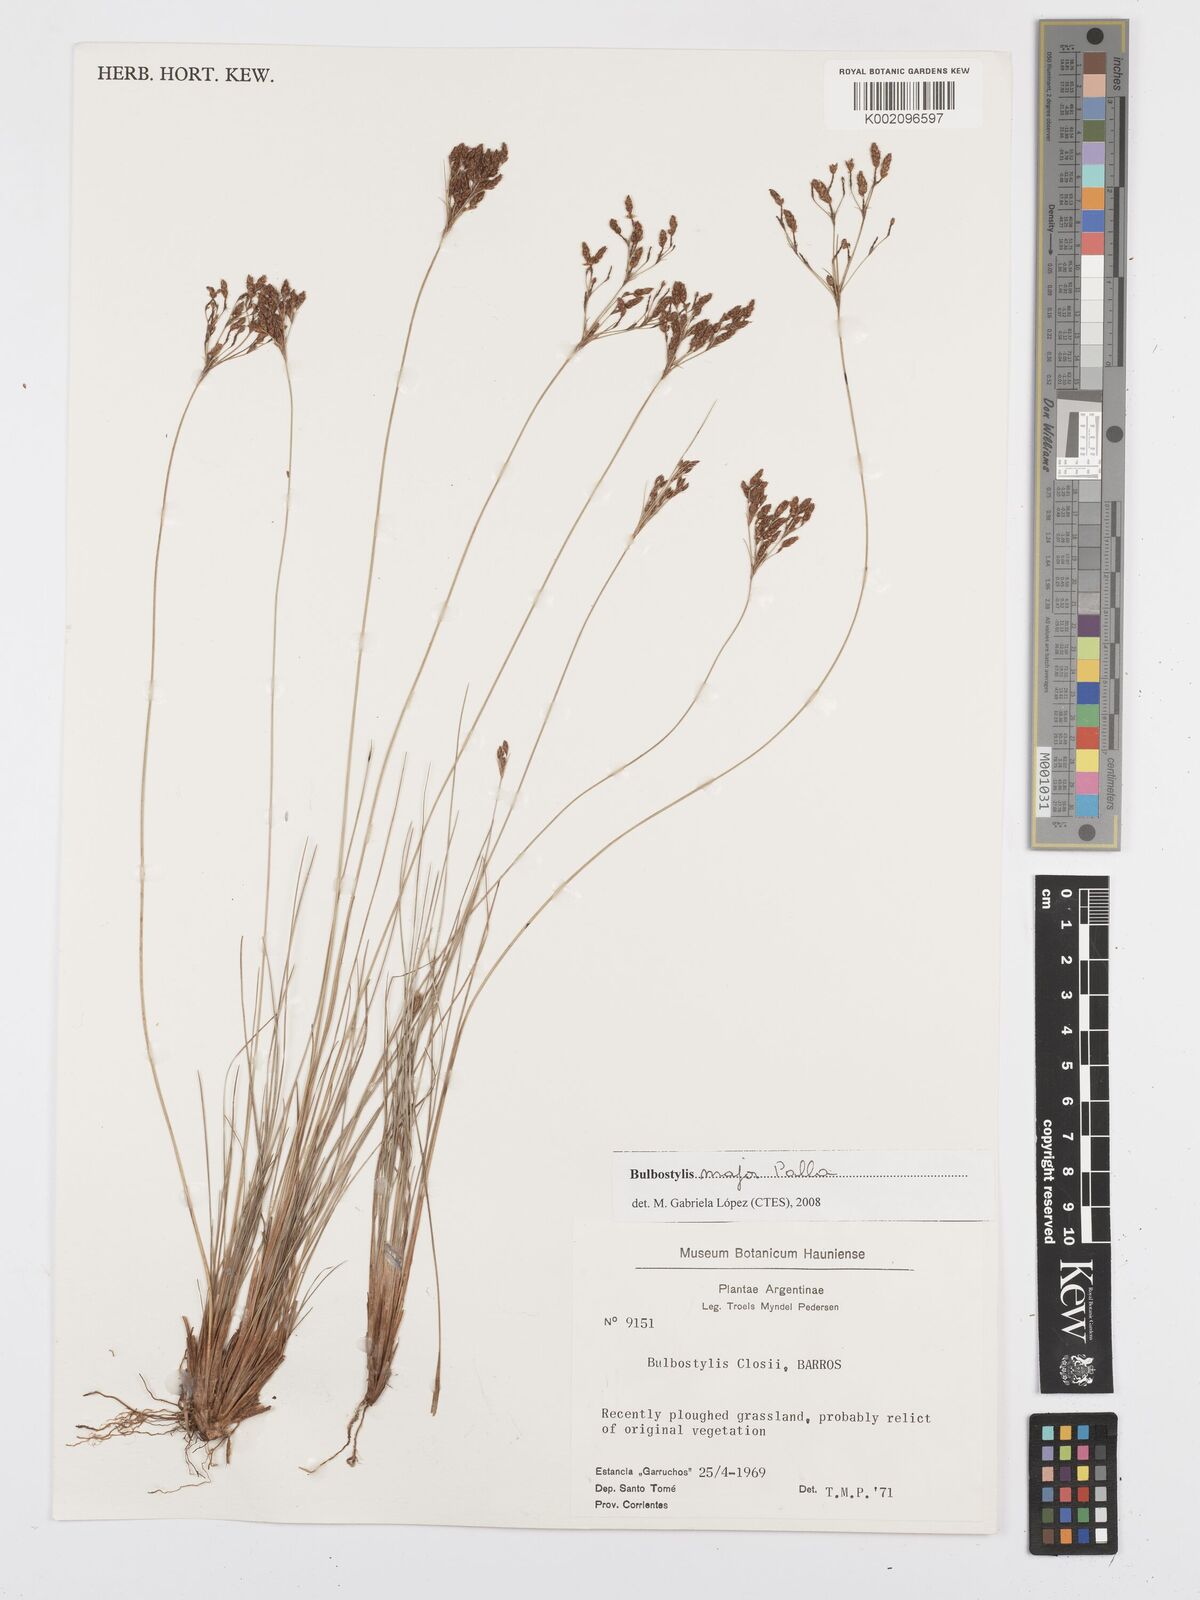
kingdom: Plantae
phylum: Tracheophyta
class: Liliopsida
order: Poales
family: Cyperaceae
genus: Bulbostylis
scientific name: Bulbostylis major
